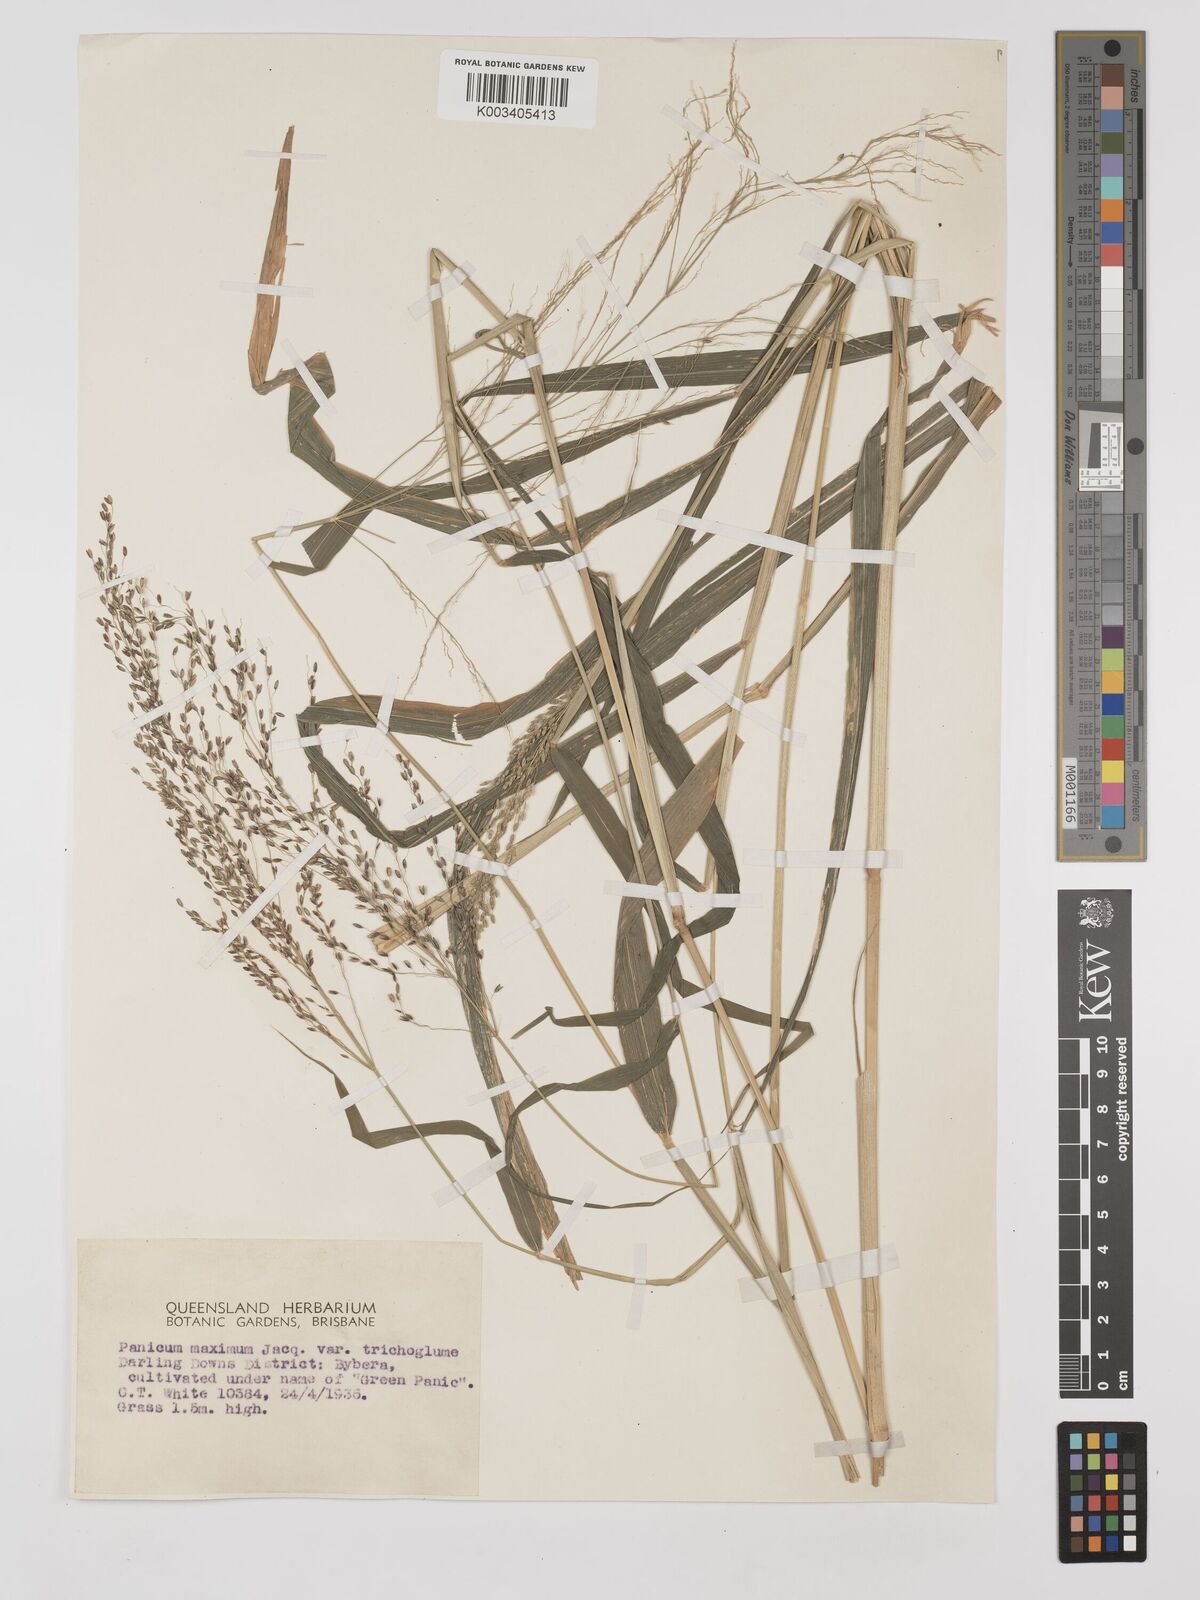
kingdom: Plantae
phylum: Tracheophyta
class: Liliopsida
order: Poales
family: Poaceae
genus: Megathyrsus
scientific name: Megathyrsus maximus
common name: Guineagrass
